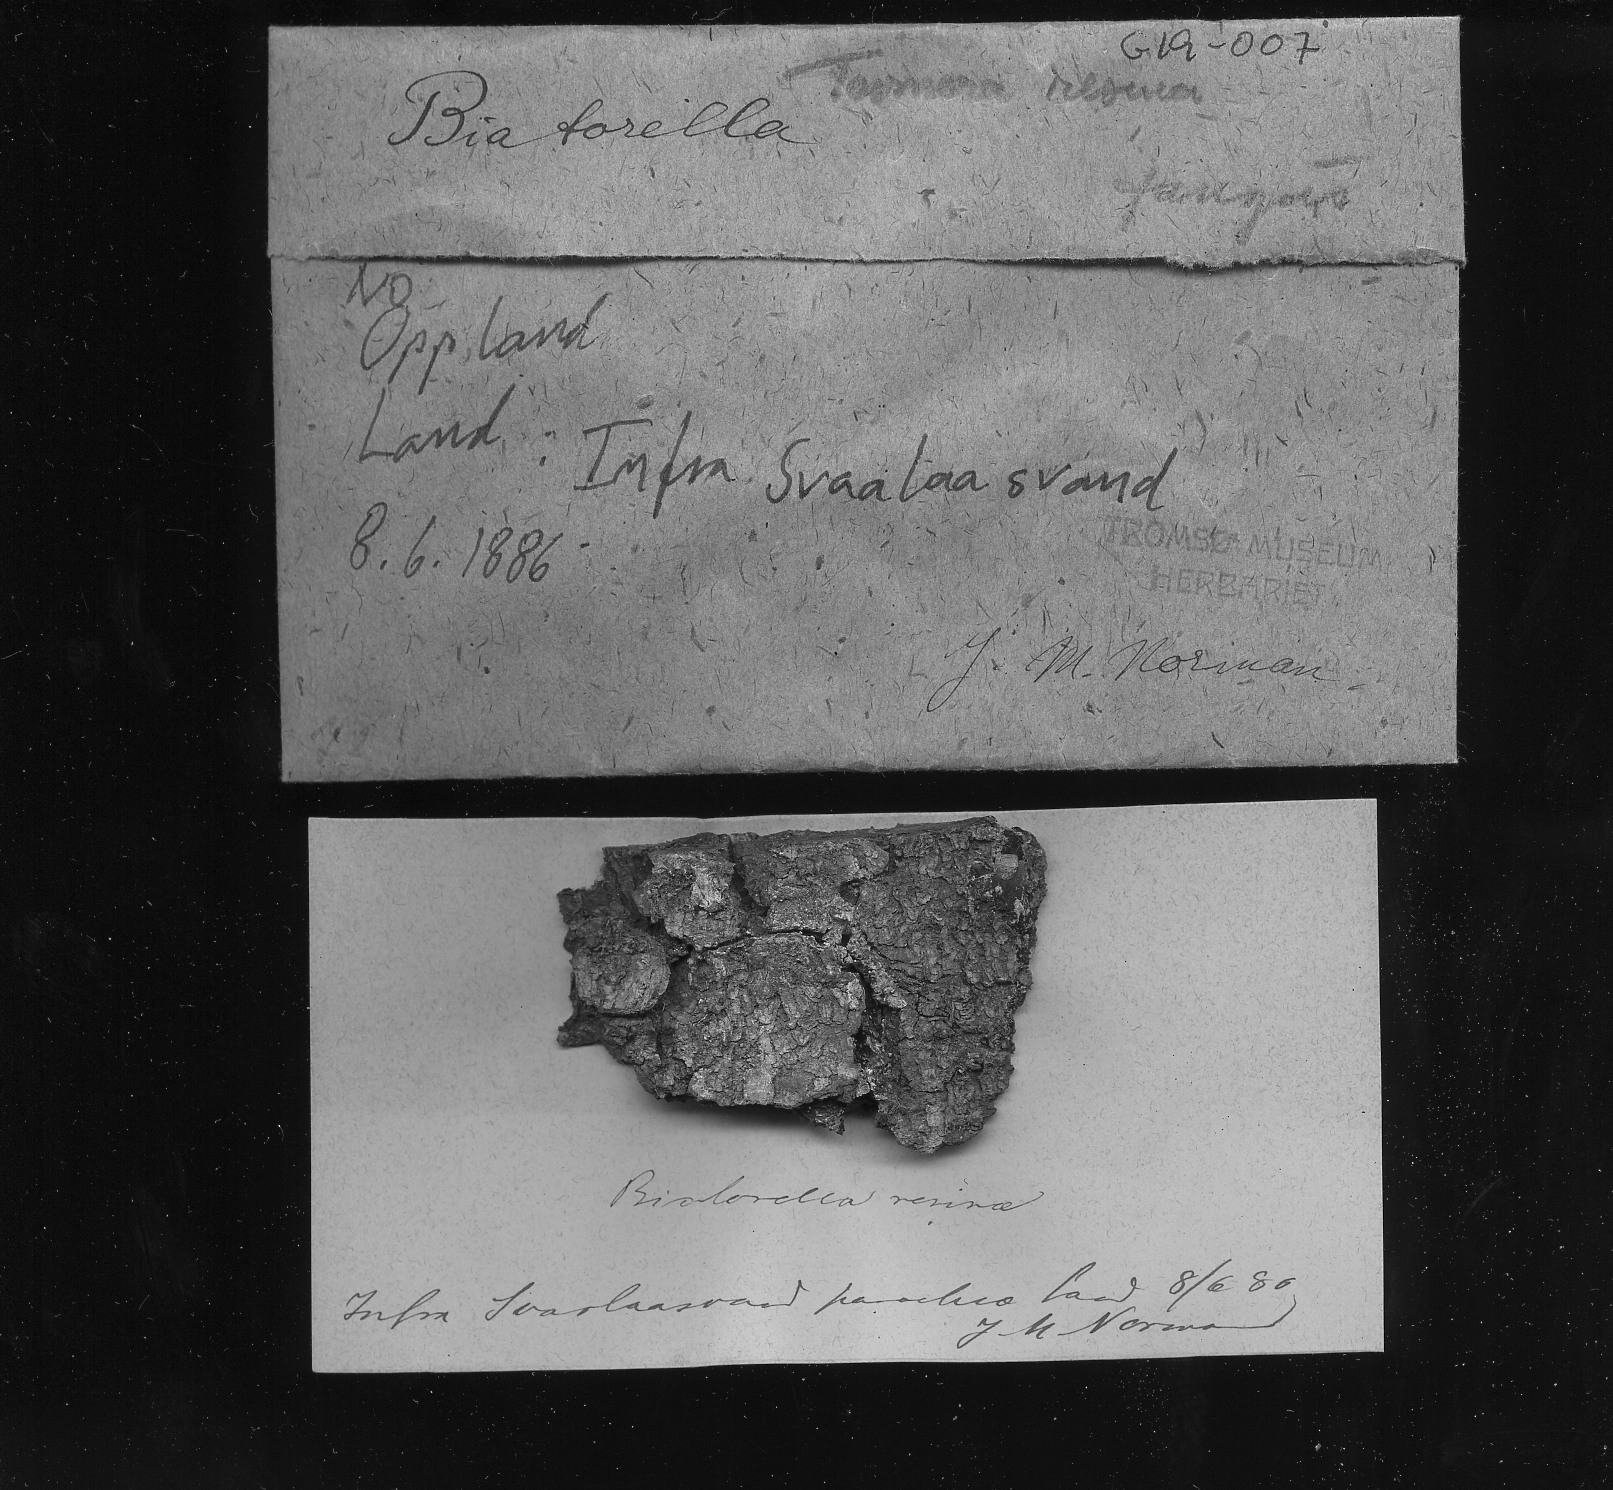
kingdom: Fungi
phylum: Ascomycota
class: Sareomycetes
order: Sareales
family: Sareaceae
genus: Sarea
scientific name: Sarea resinae
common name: Sarea lichen
